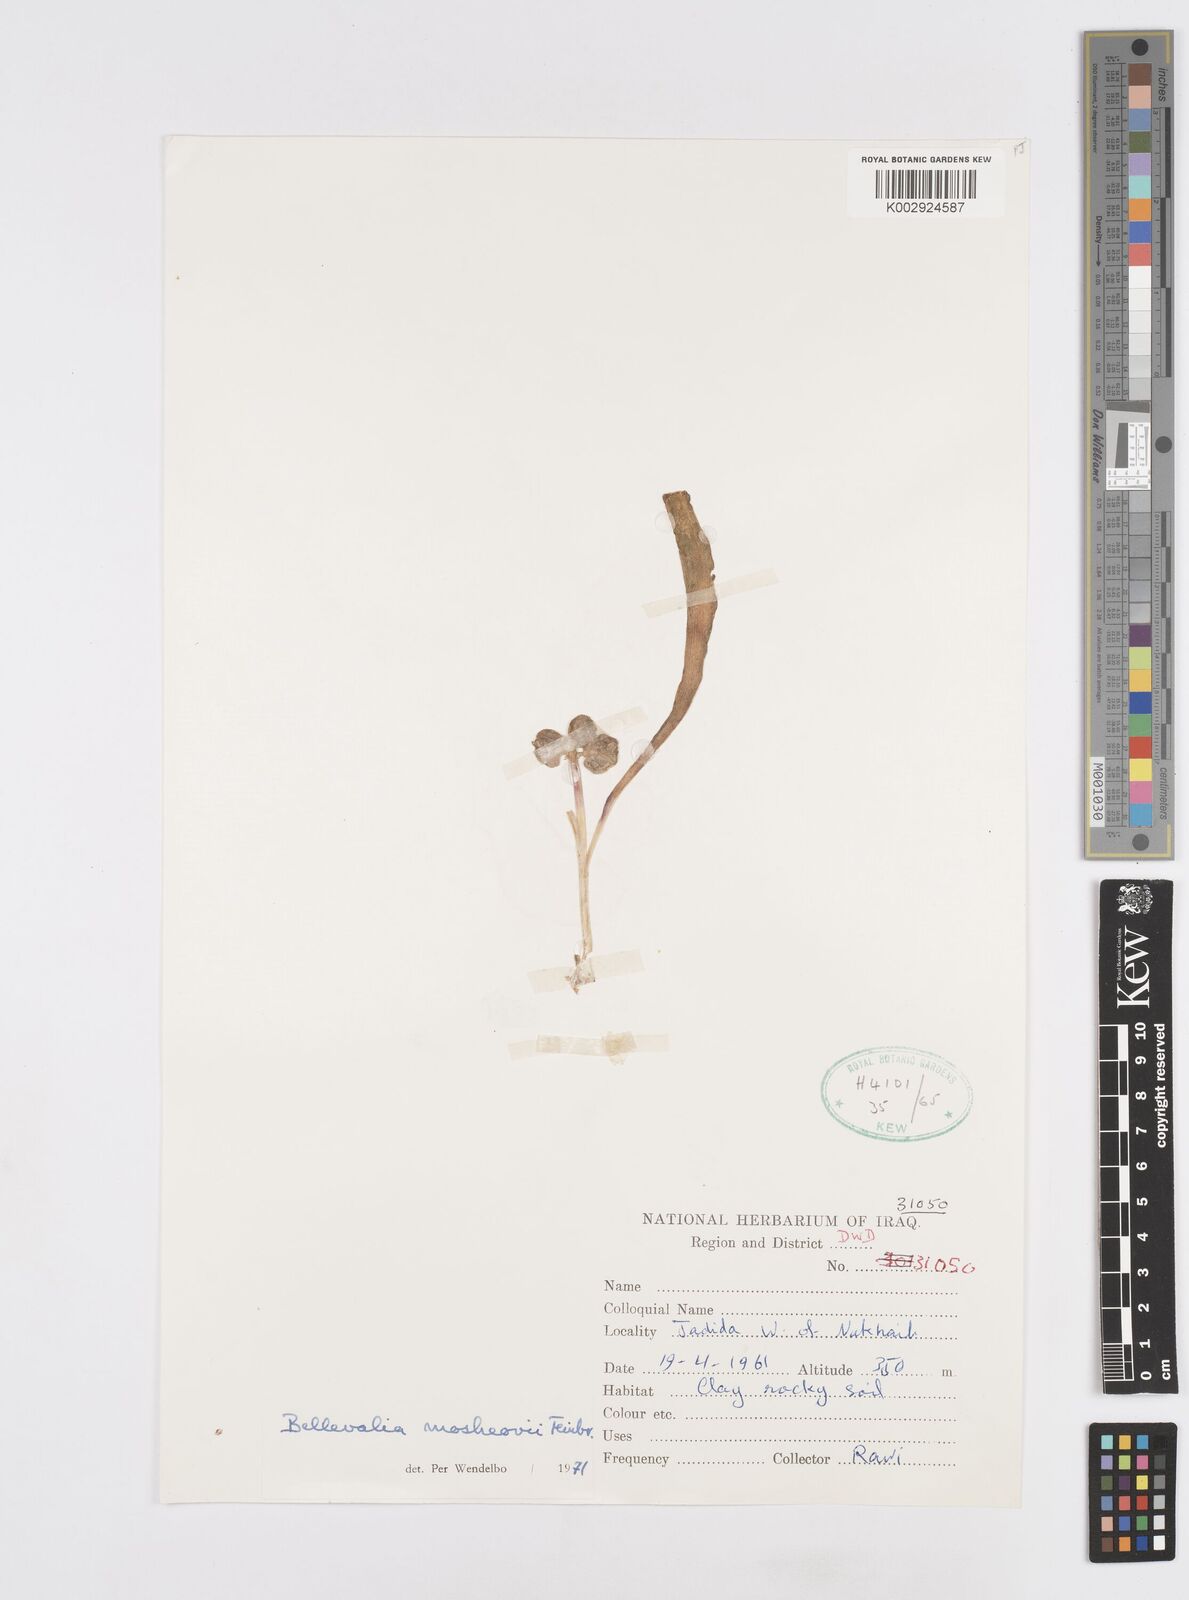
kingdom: Plantae
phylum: Tracheophyta
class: Liliopsida
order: Asparagales
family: Asparagaceae
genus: Bellevalia
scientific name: Bellevalia mosheovii
